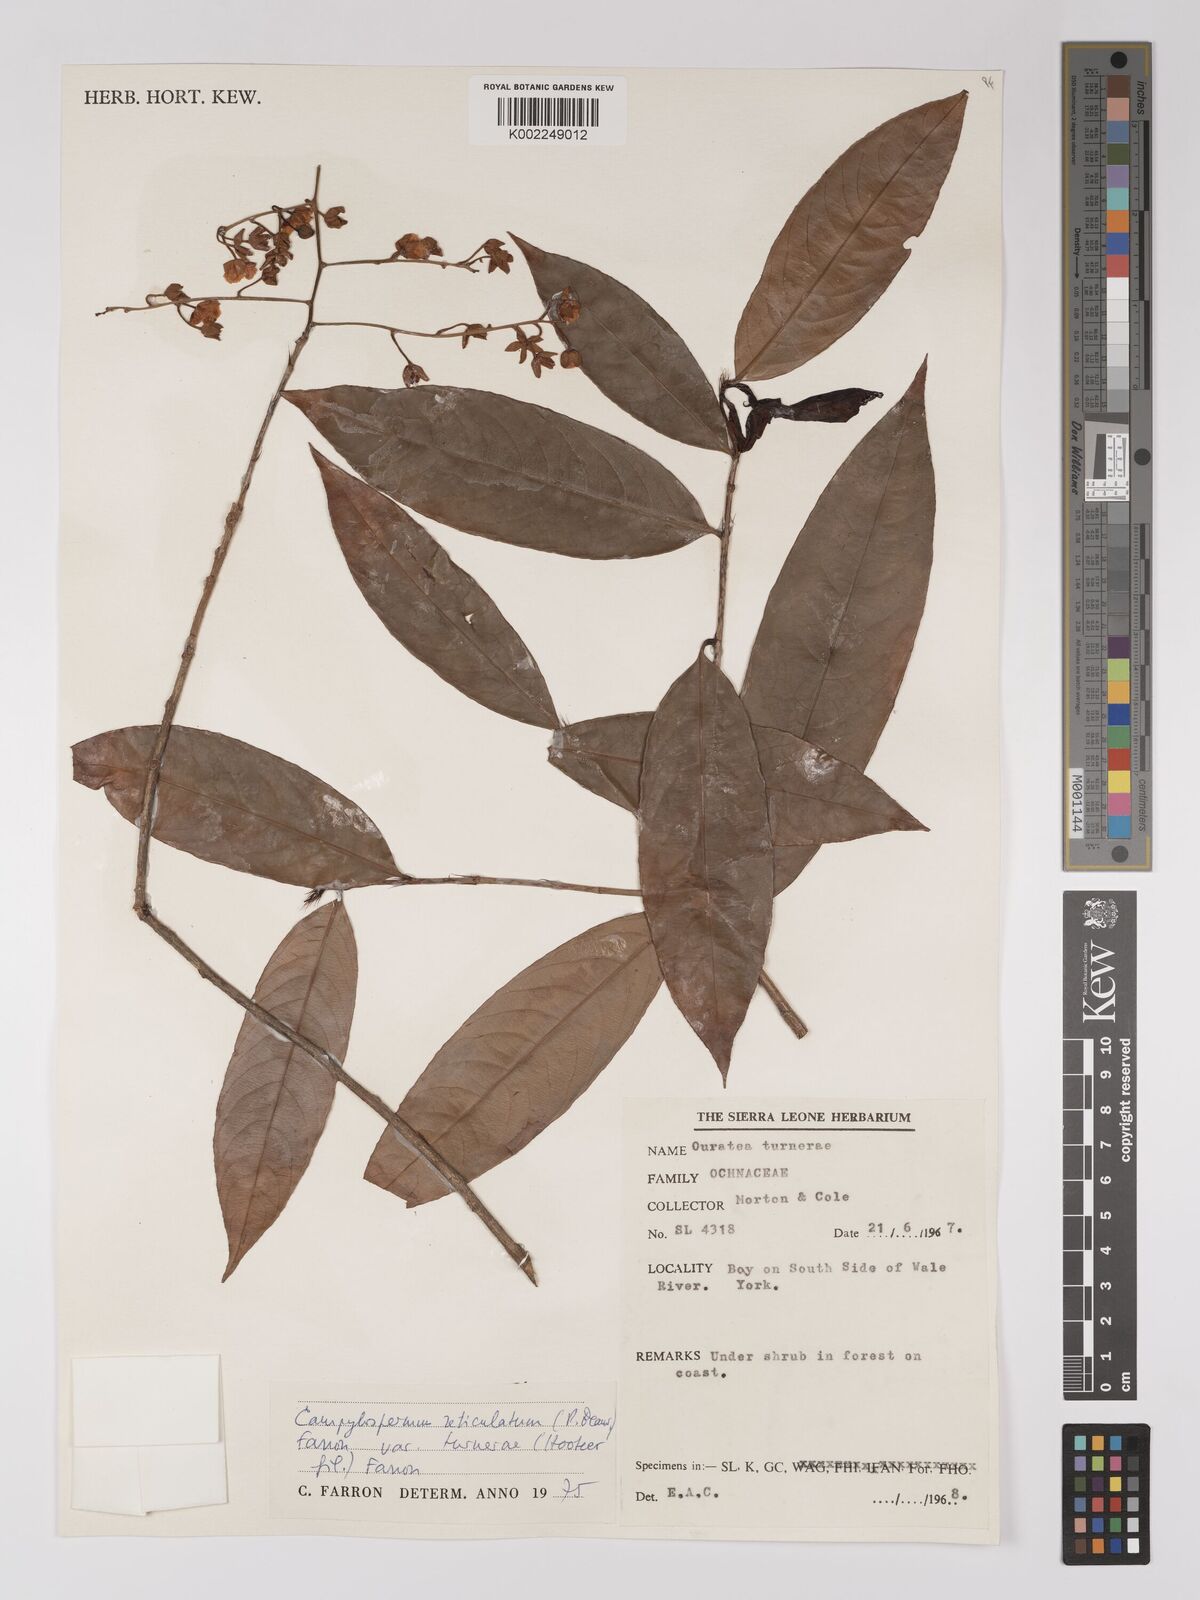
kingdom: Plantae
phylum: Tracheophyta
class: Magnoliopsida
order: Malpighiales
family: Ochnaceae
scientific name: Ochnaceae
